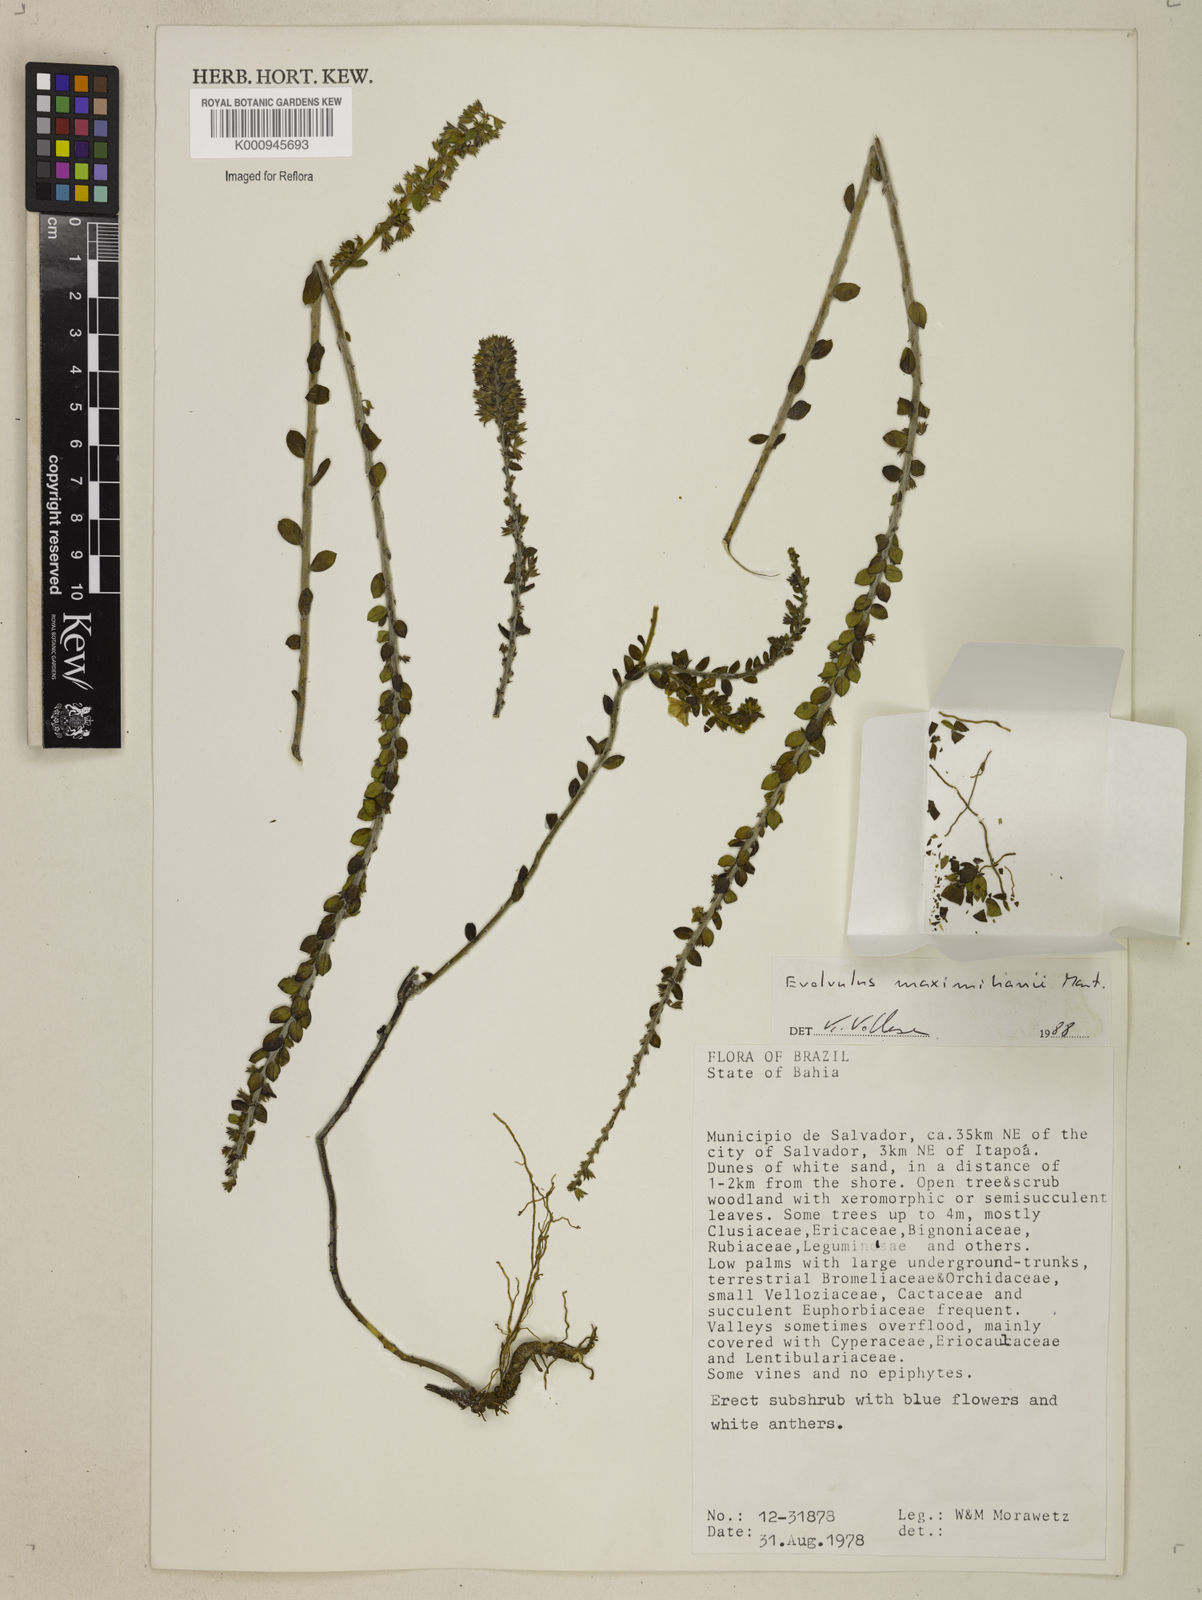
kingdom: Plantae
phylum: Tracheophyta
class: Magnoliopsida
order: Solanales
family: Convolvulaceae
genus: Evolvulus
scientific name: Evolvulus maximiliani
